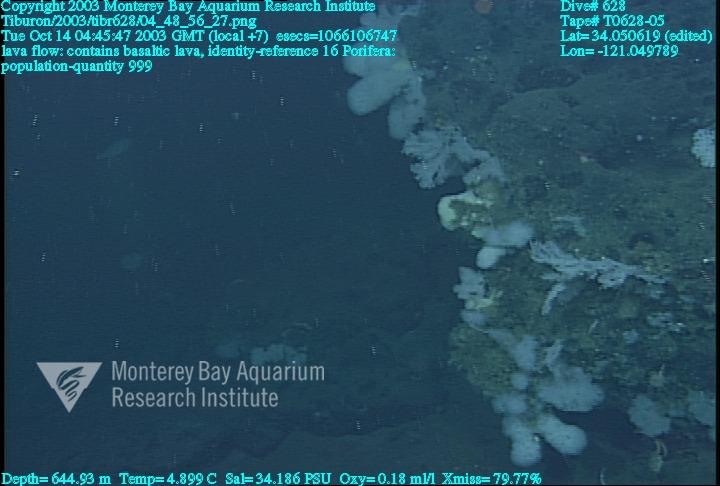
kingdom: Animalia
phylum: Porifera
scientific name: Porifera
